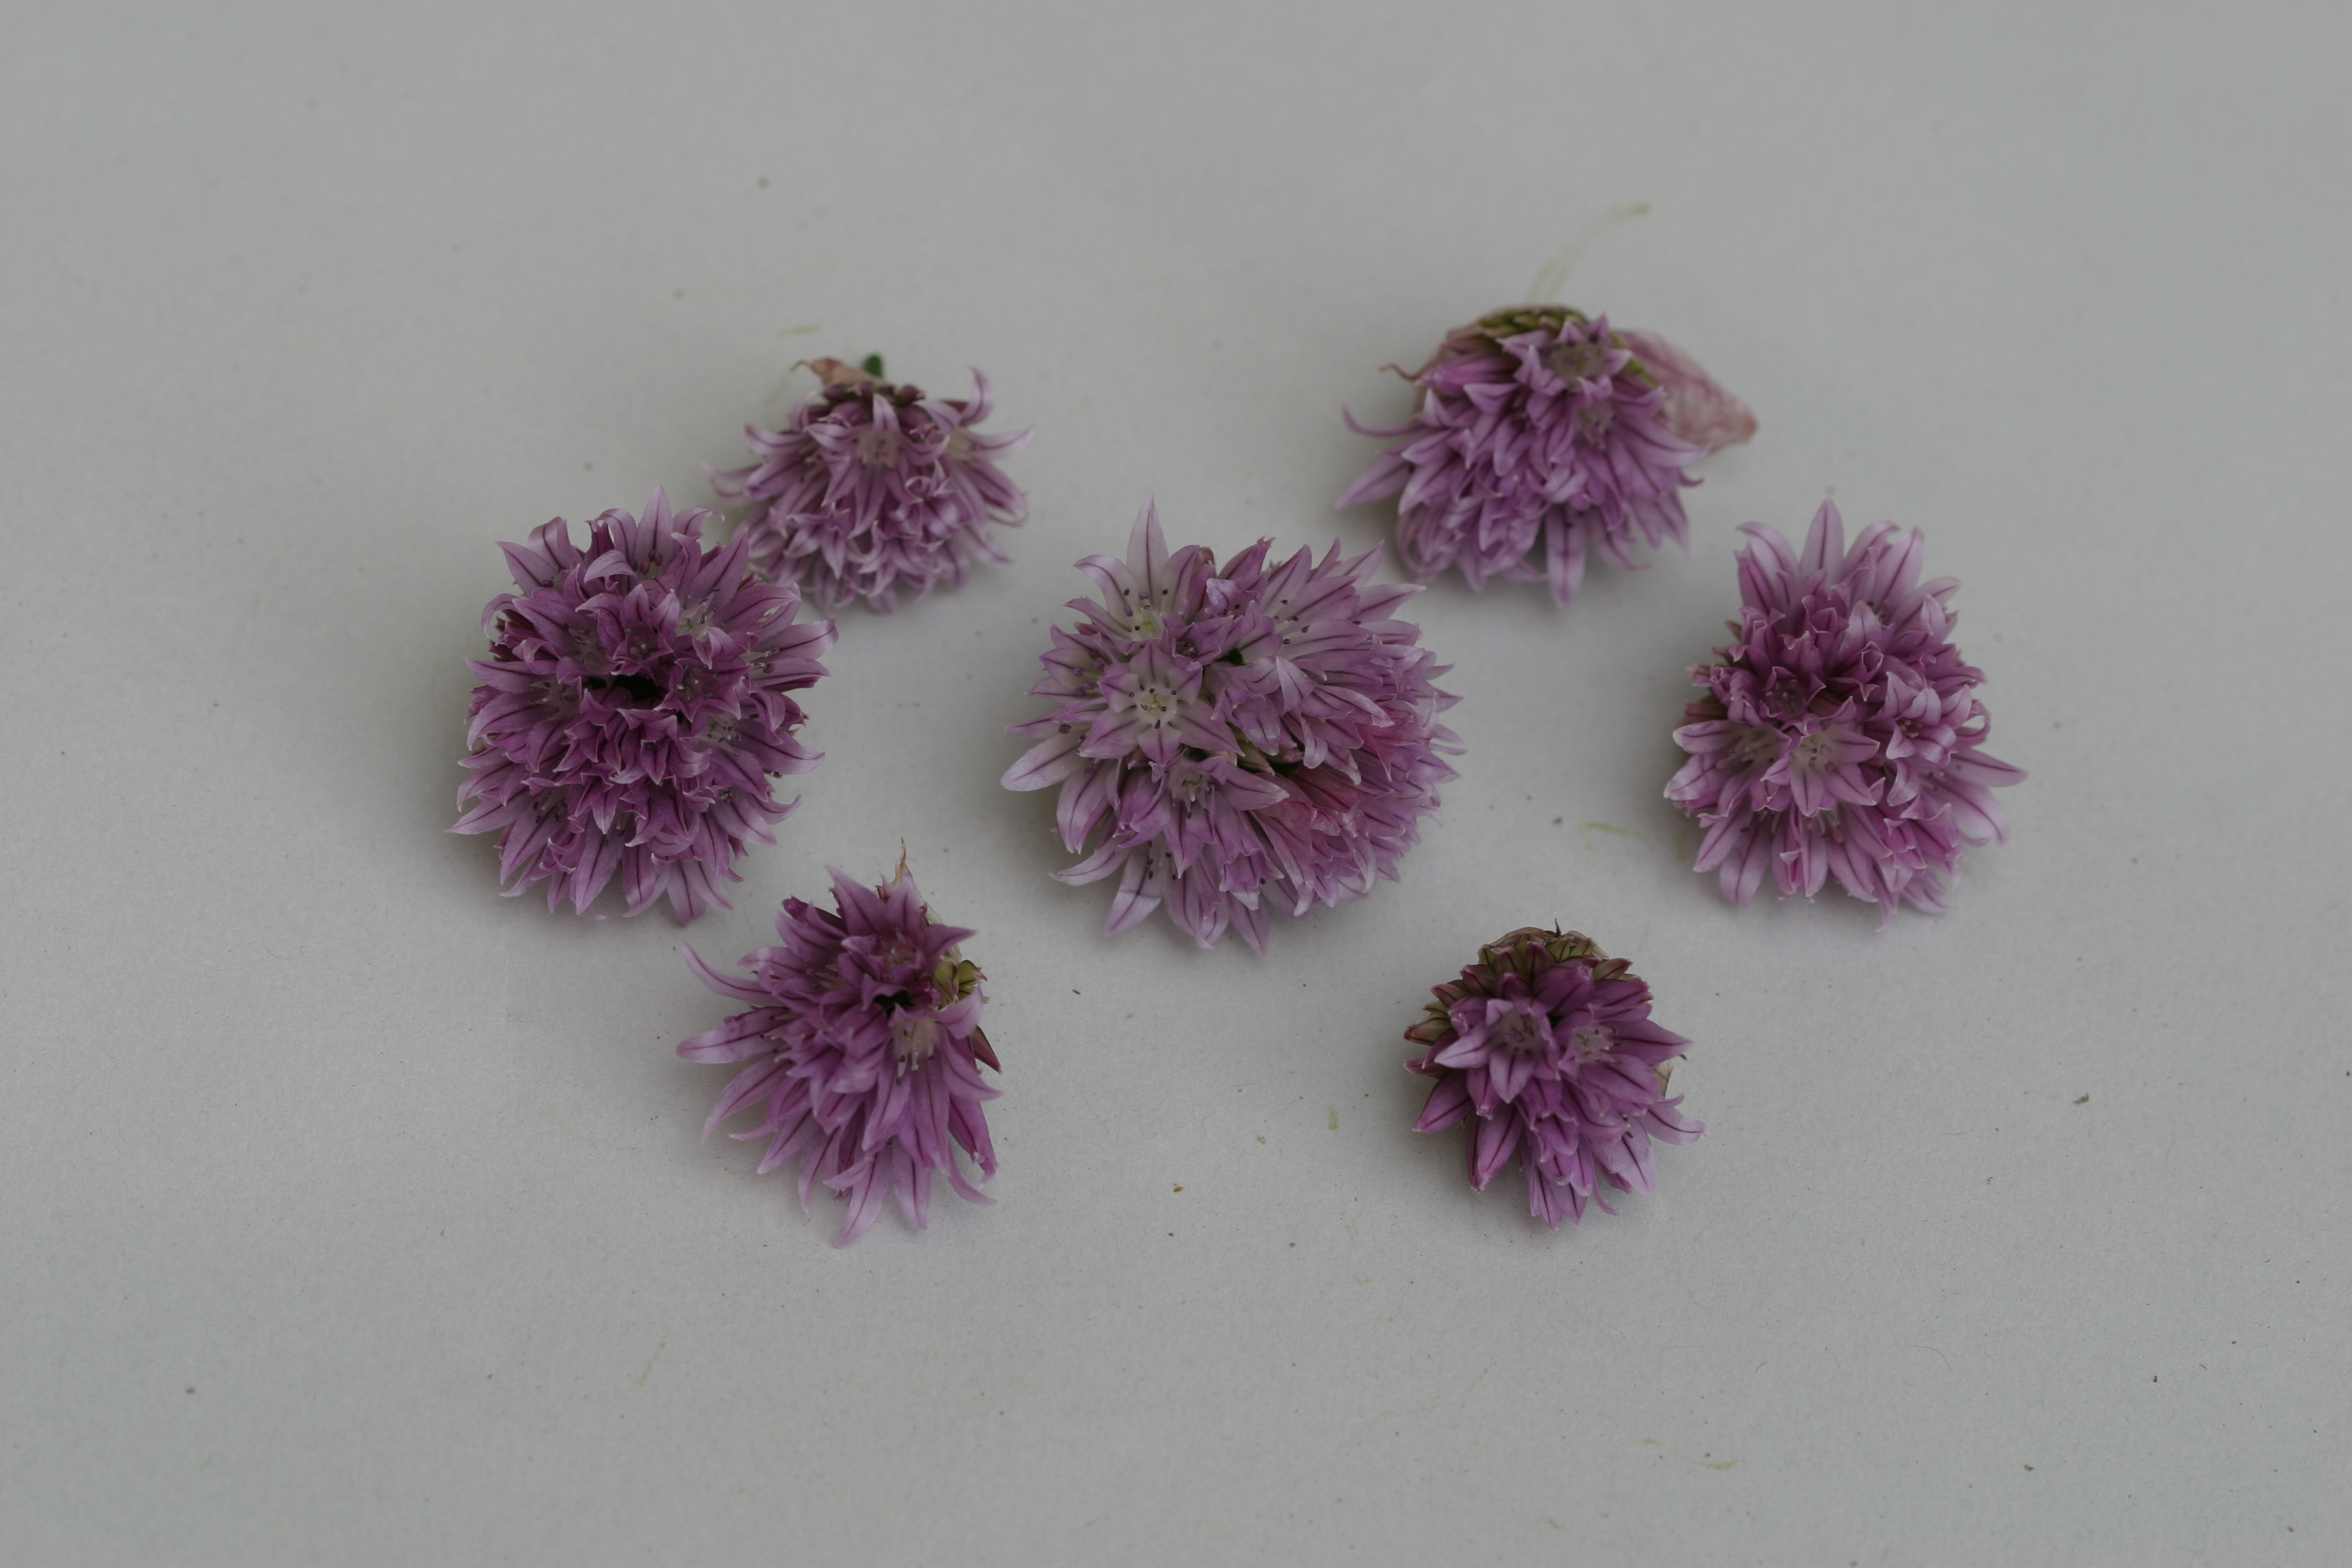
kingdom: Plantae
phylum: Tracheophyta
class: Liliopsida
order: Asparagales
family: Amaryllidaceae
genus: Allium
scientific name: Allium schoenoprasum
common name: Chives
